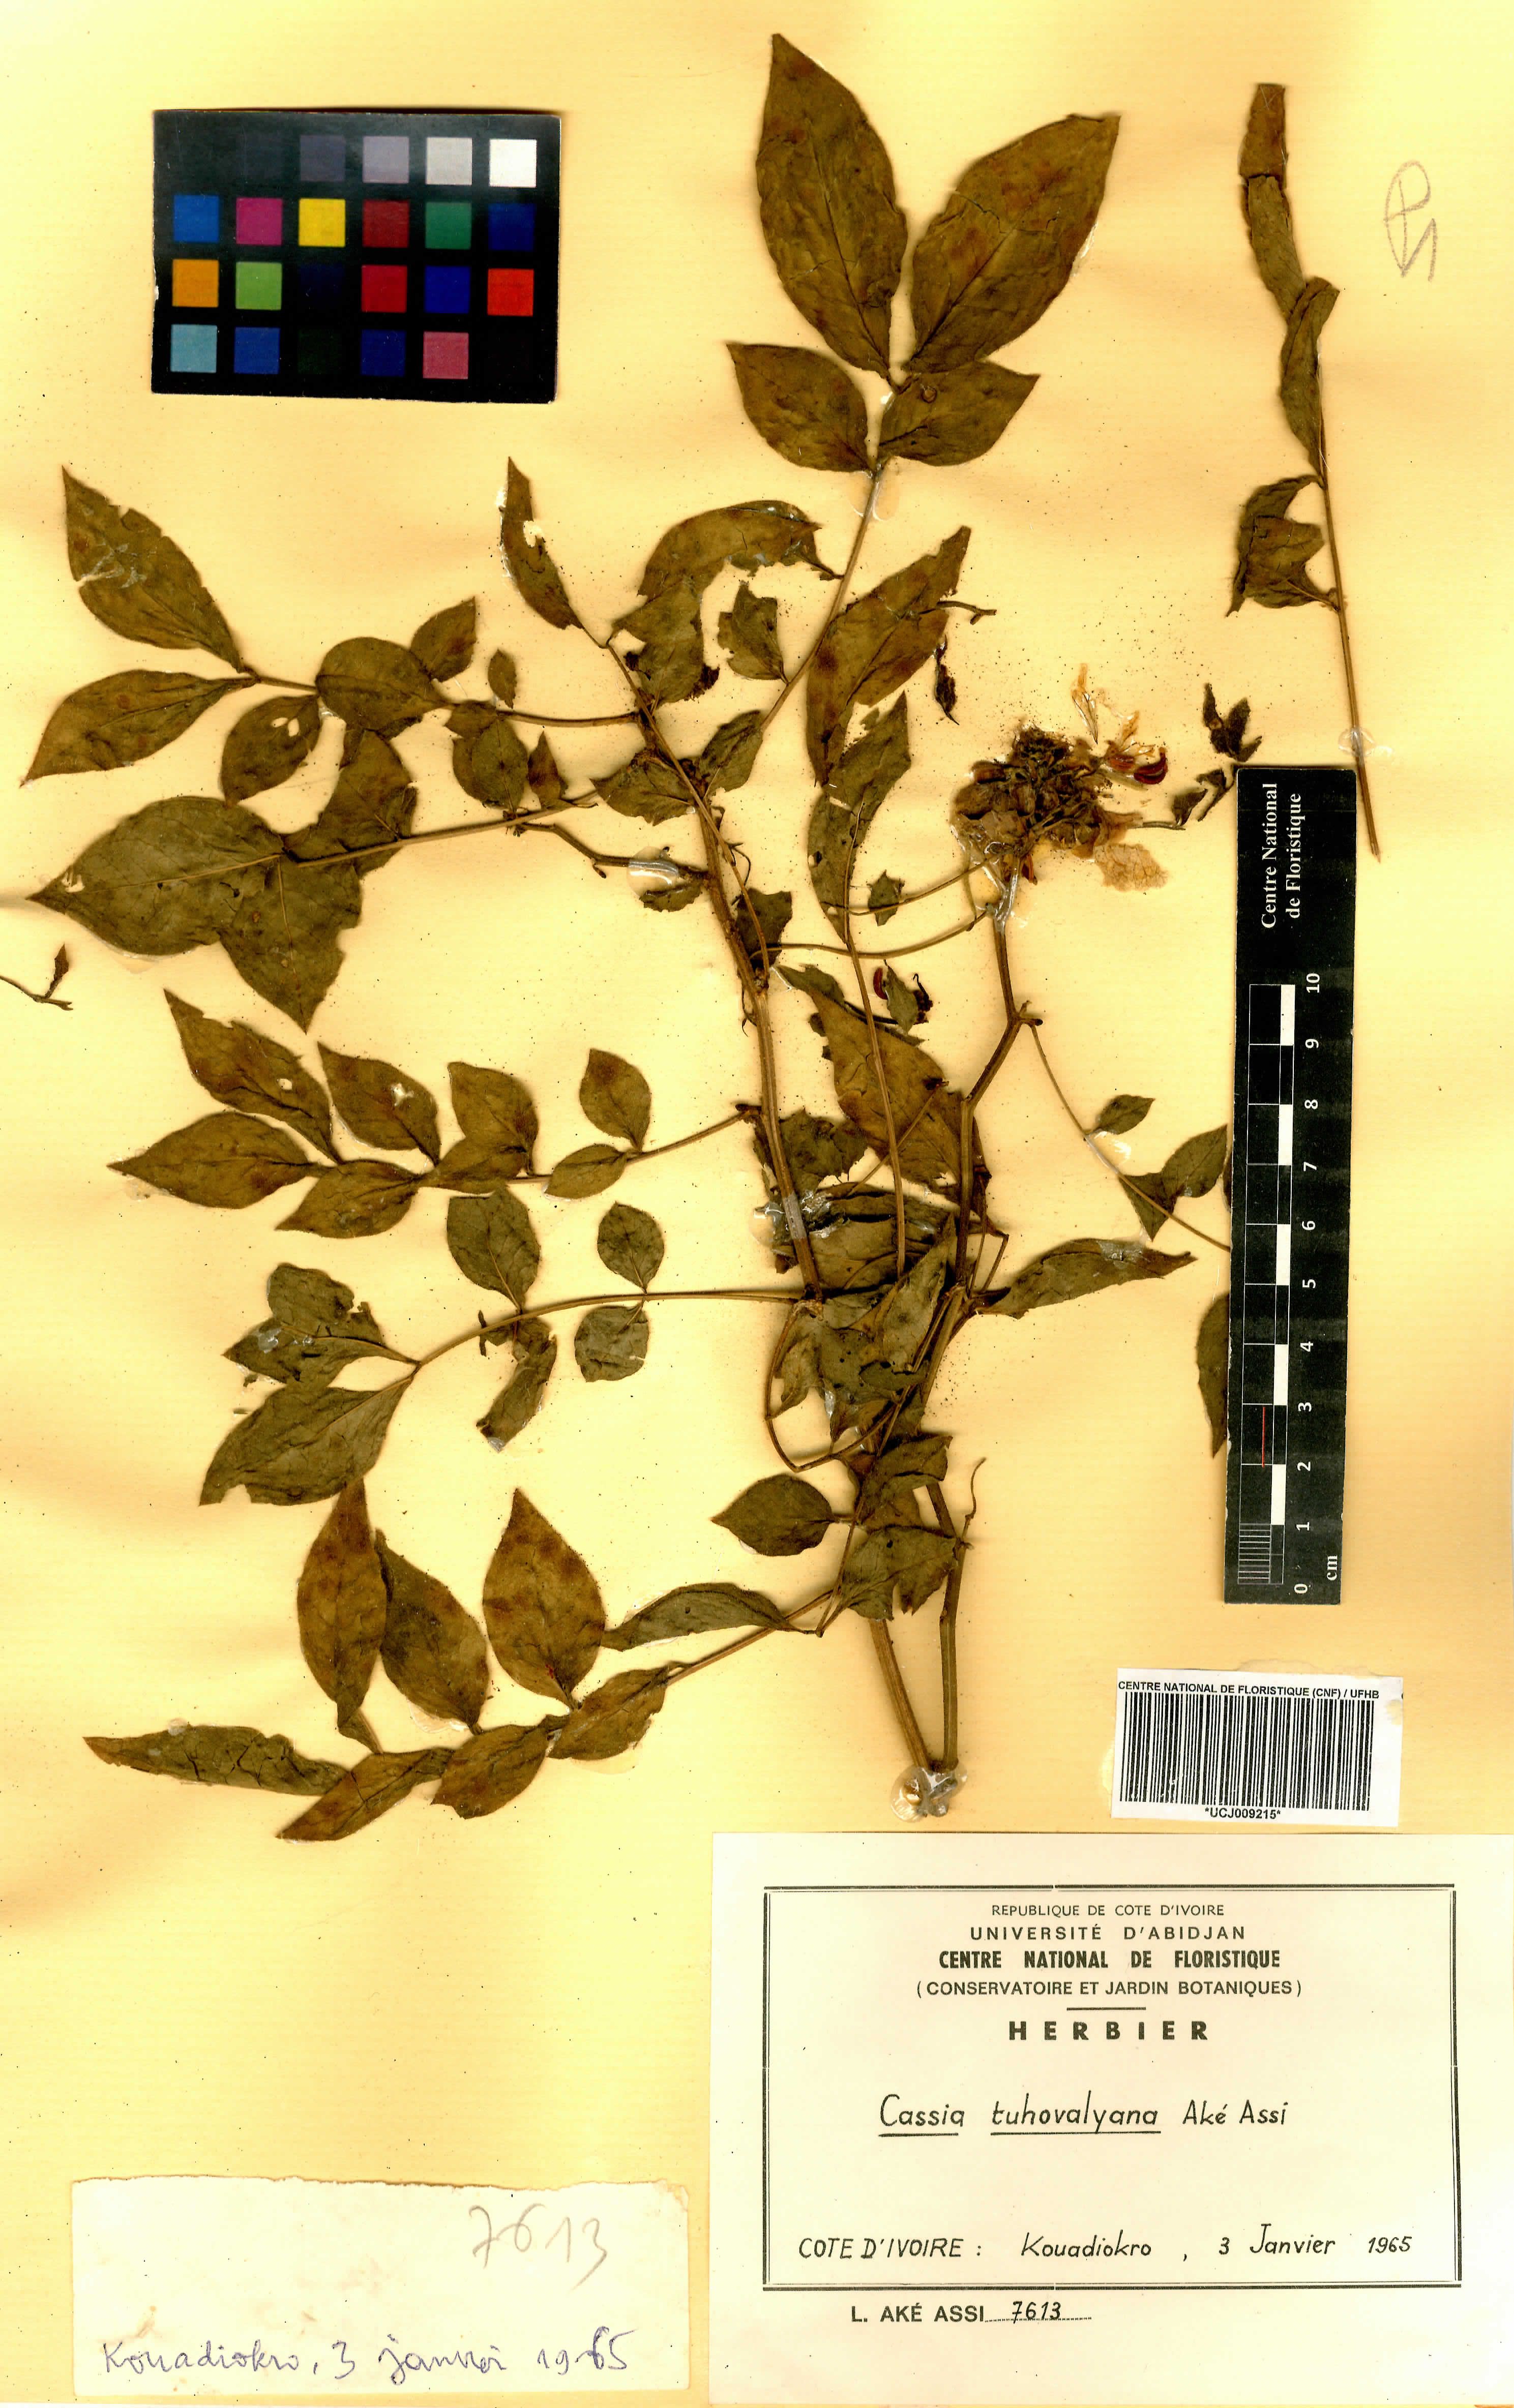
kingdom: Plantae
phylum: Tracheophyta
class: Magnoliopsida
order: Fabales
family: Fabaceae
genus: Senna
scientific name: Senna tuhovalyana
